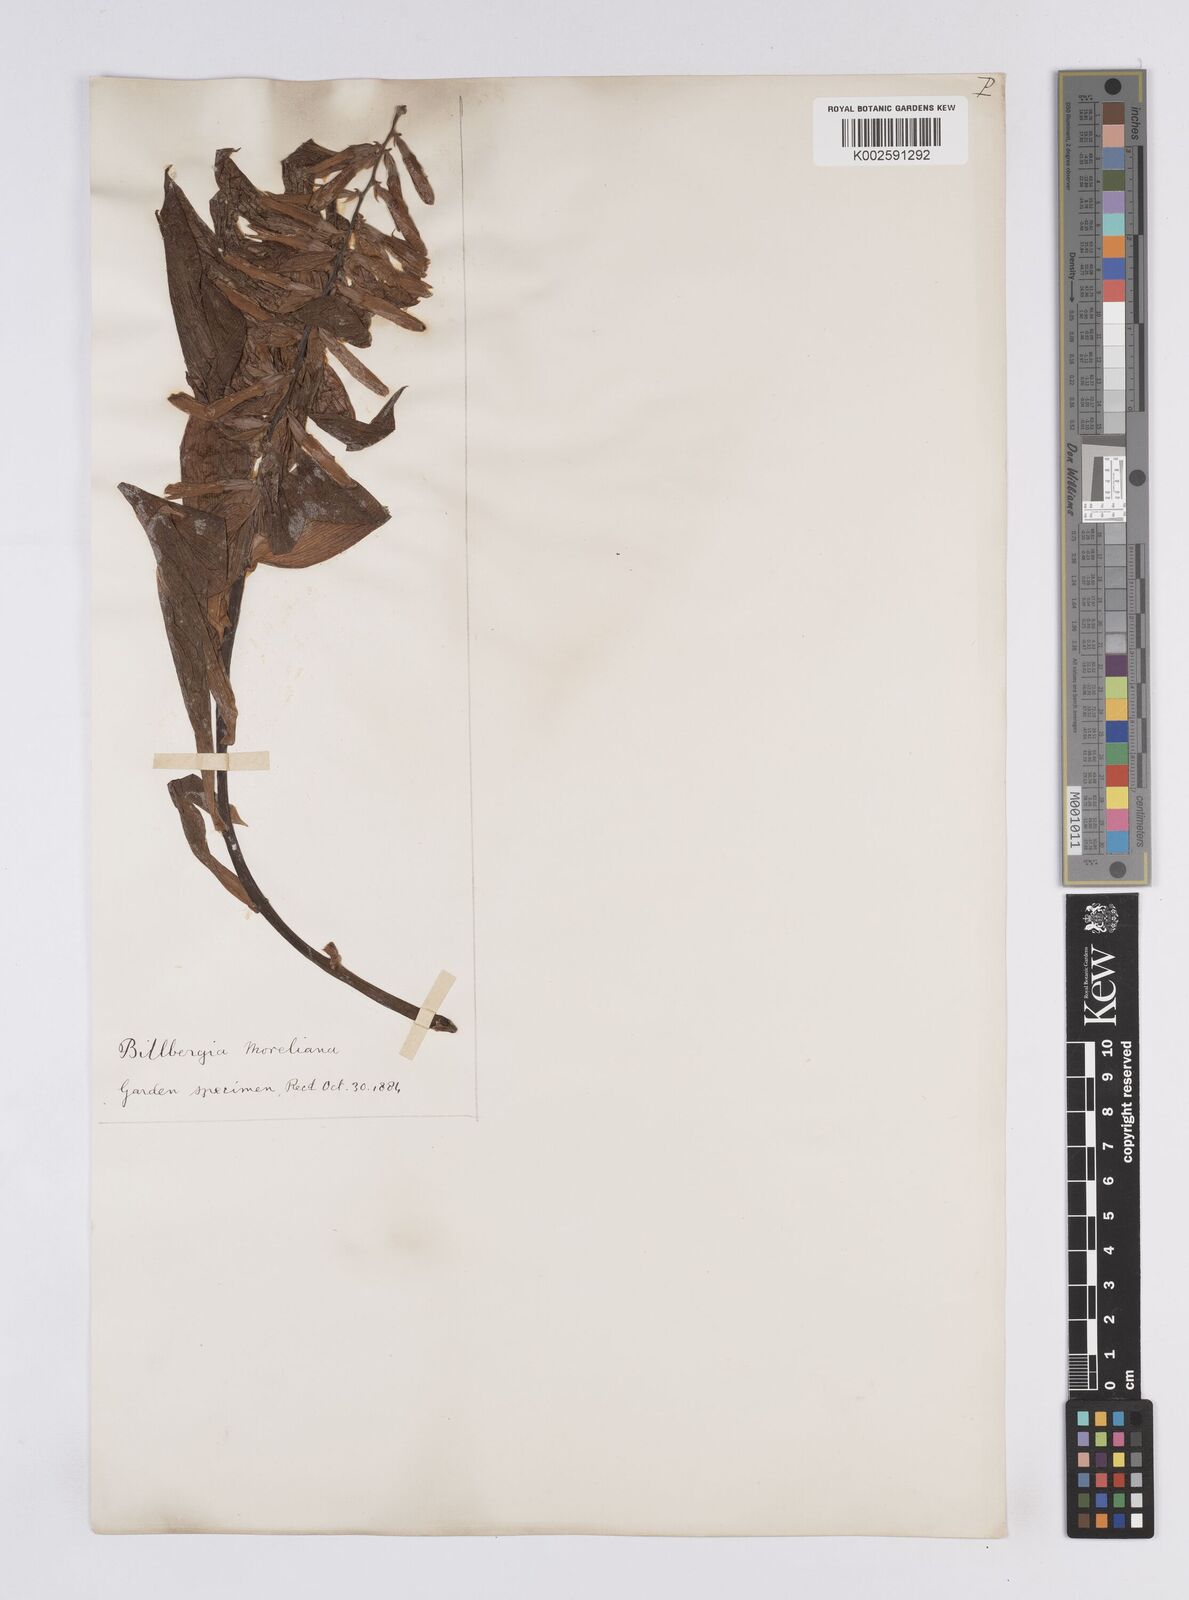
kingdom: Plantae
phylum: Tracheophyta
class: Liliopsida
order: Poales
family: Bromeliaceae
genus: Billbergia
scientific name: Billbergia morelii
